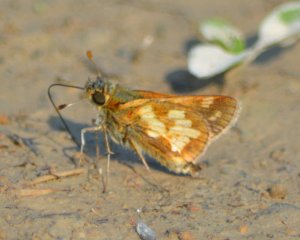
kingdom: Animalia
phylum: Arthropoda
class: Insecta
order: Lepidoptera
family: Hesperiidae
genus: Polites
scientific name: Polites coras
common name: Peck's Skipper
